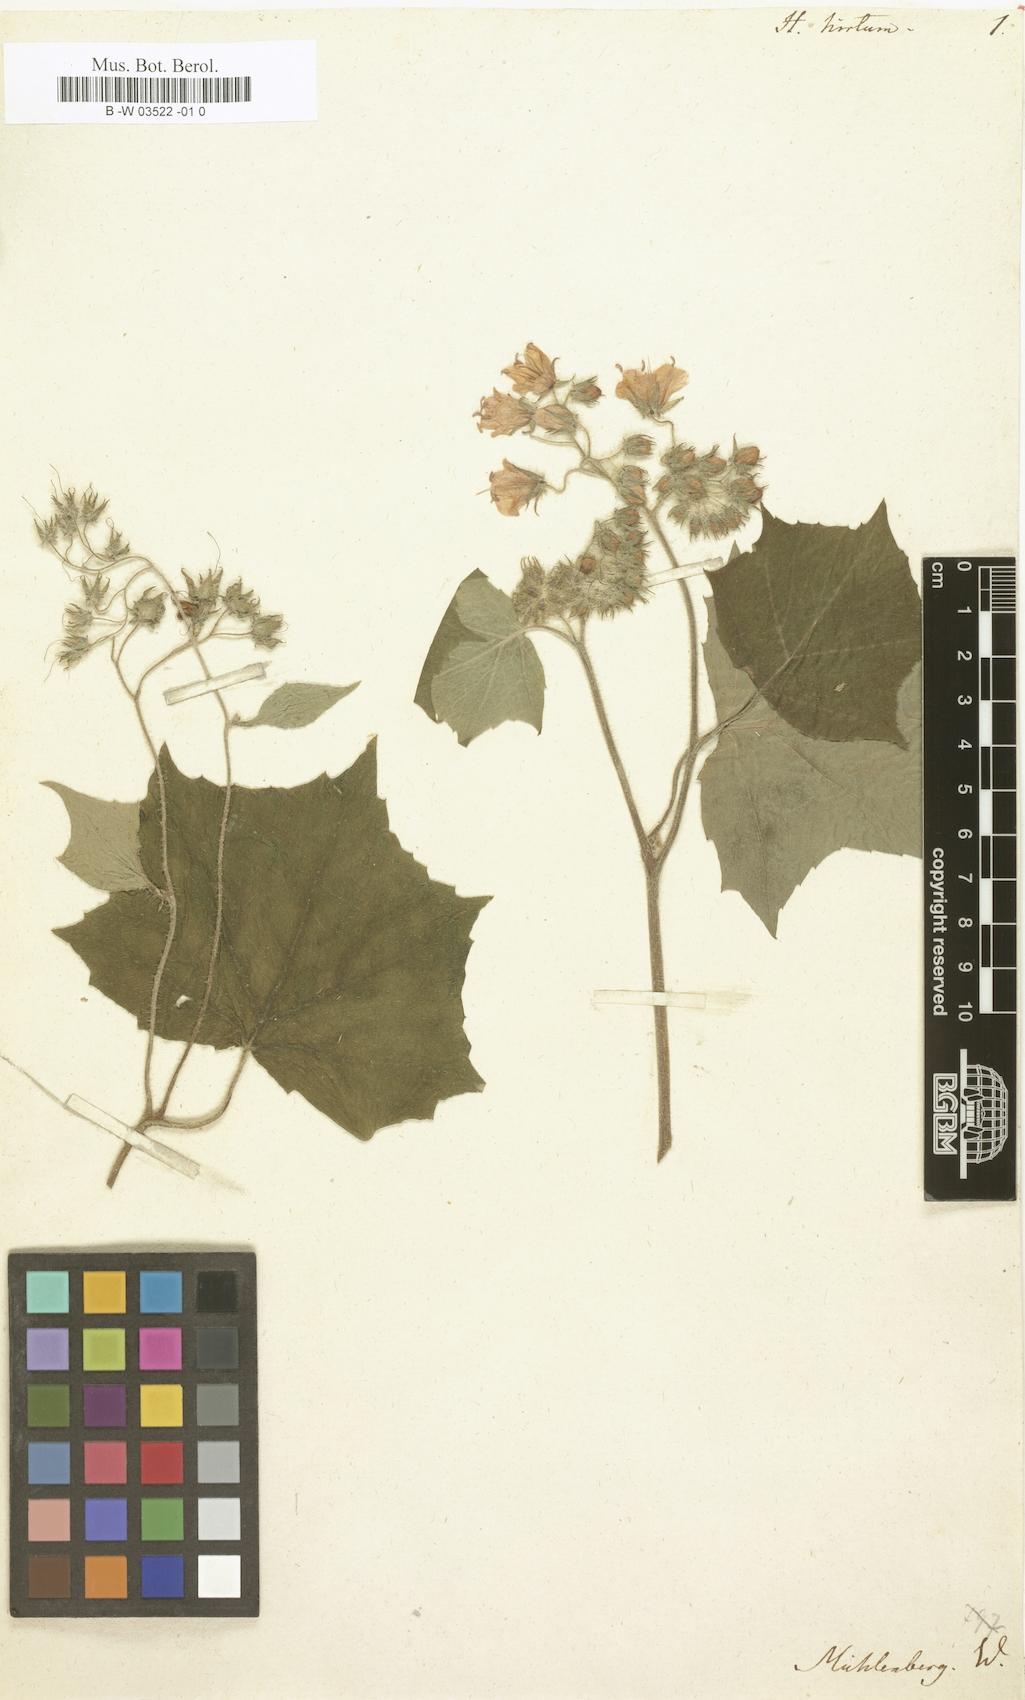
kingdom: Plantae
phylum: Tracheophyta
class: Magnoliopsida
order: Boraginales
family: Hydrophyllaceae
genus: Hydrophyllum
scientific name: Hydrophyllum hirtum
